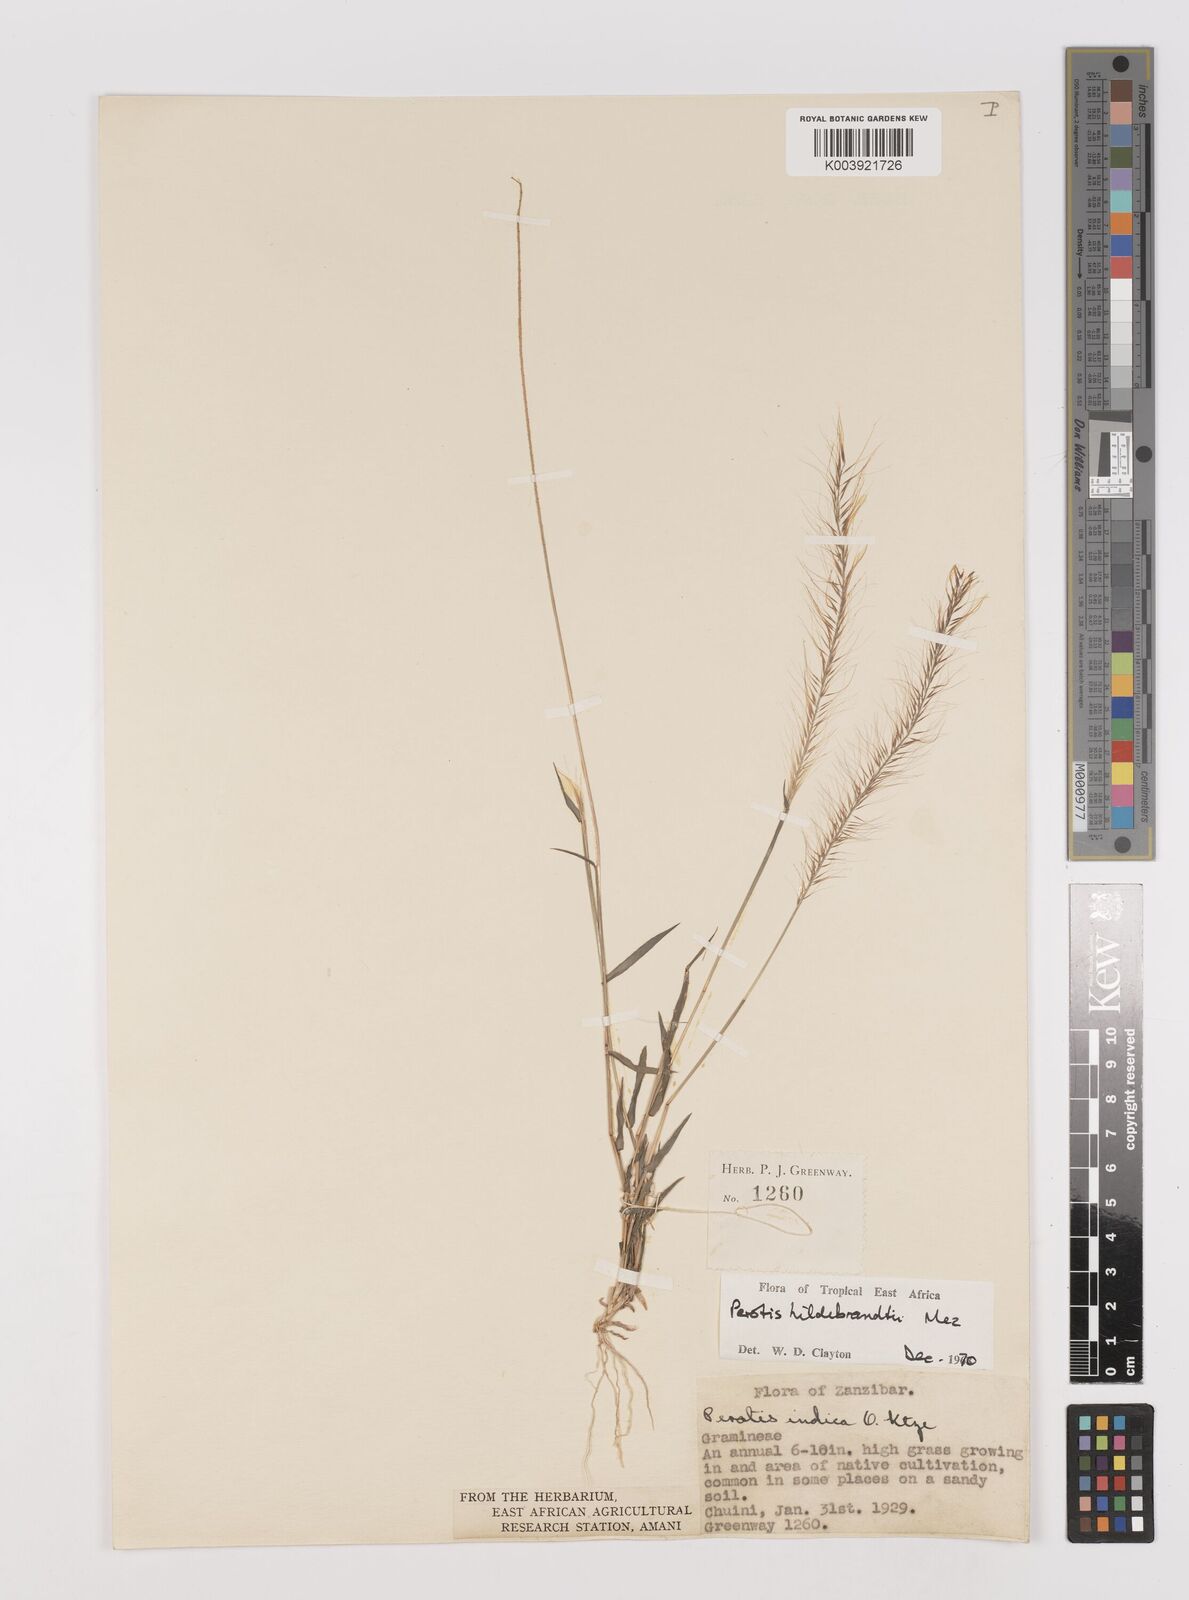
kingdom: Plantae
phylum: Tracheophyta
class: Liliopsida
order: Poales
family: Poaceae
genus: Perotis
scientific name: Perotis hildebrandtii
